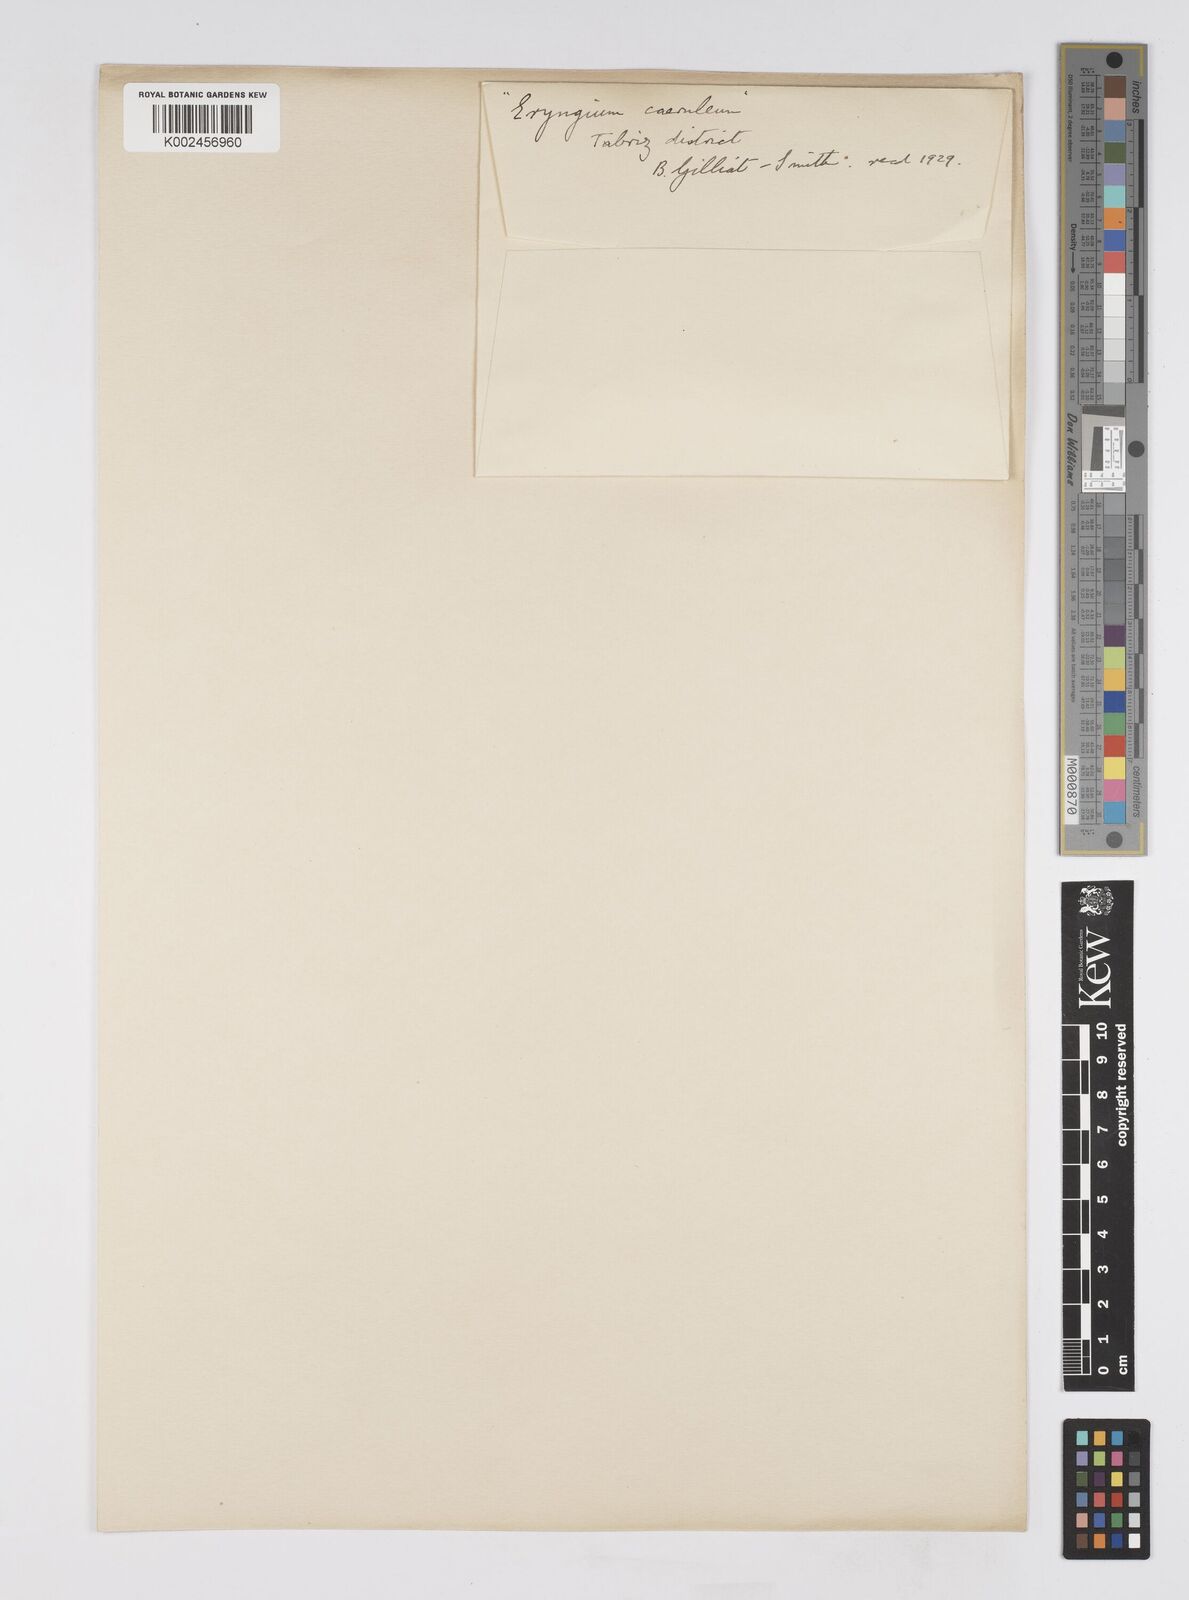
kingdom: Plantae
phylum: Tracheophyta
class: Magnoliopsida
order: Apiales
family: Apiaceae
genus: Eryngium
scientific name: Eryngium
